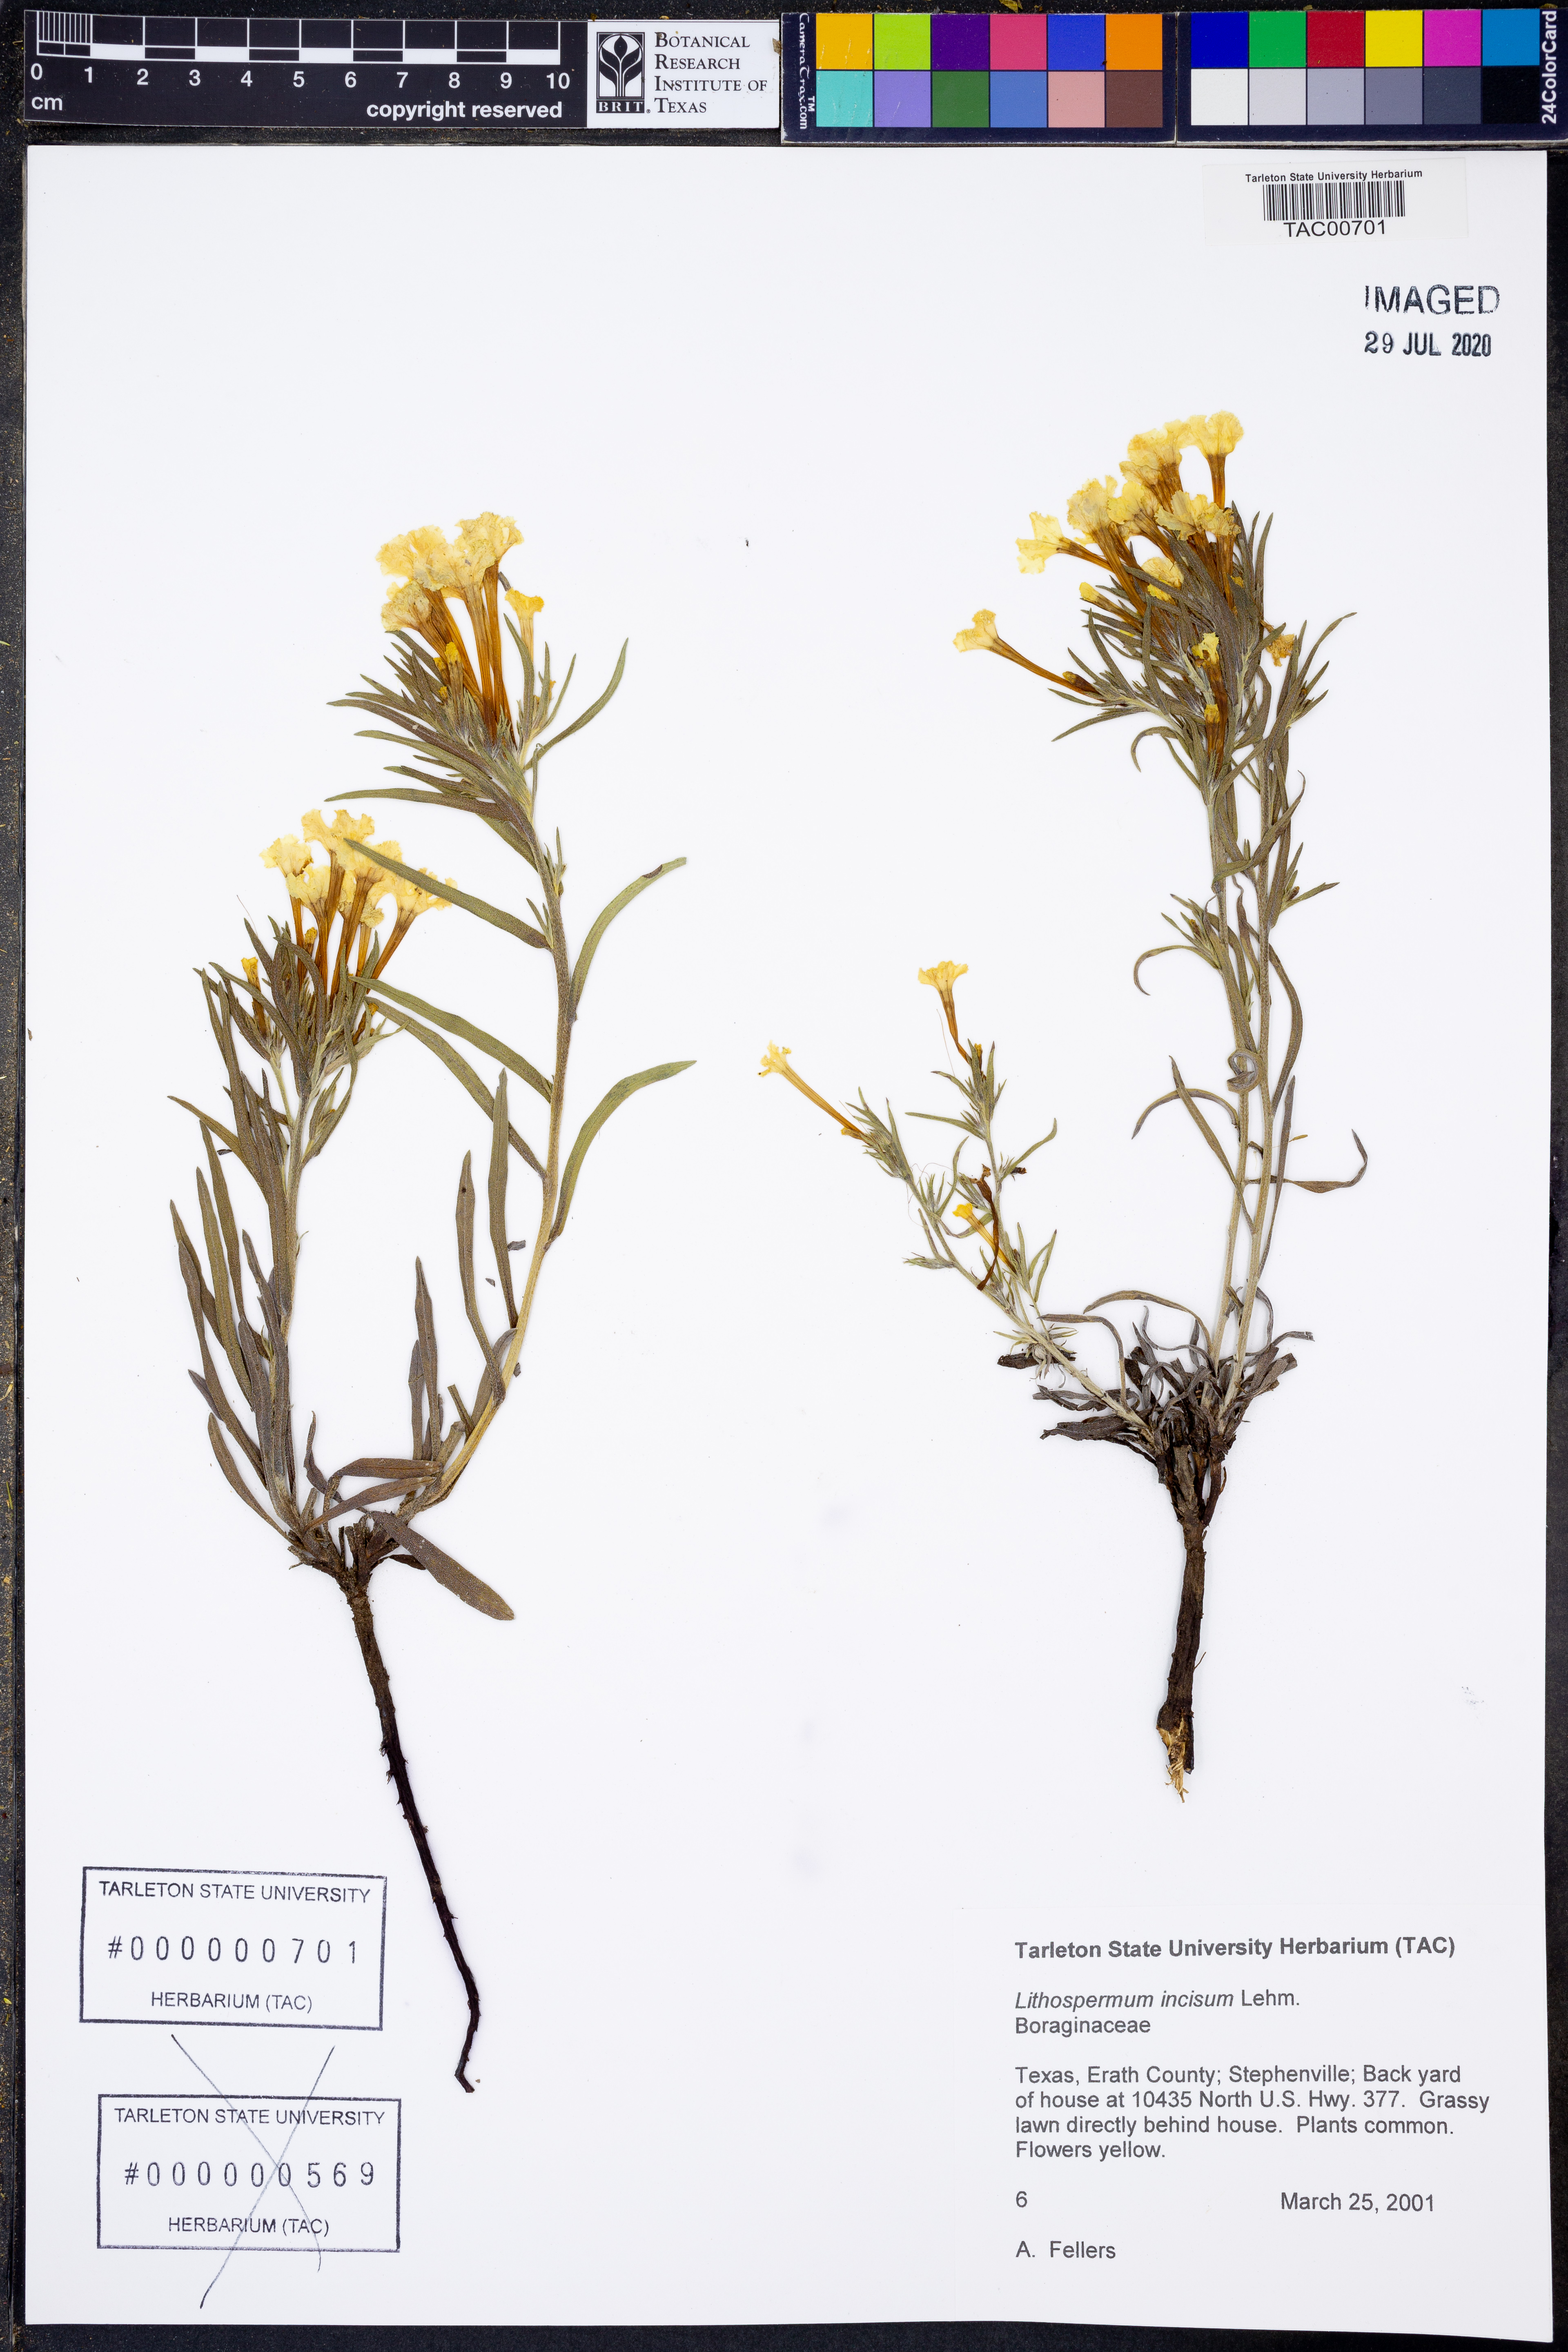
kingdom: Plantae
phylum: Tracheophyta
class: Magnoliopsida
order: Boraginales
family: Boraginaceae
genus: Lithospermum
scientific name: Lithospermum incisum
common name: Fringed gromwell
